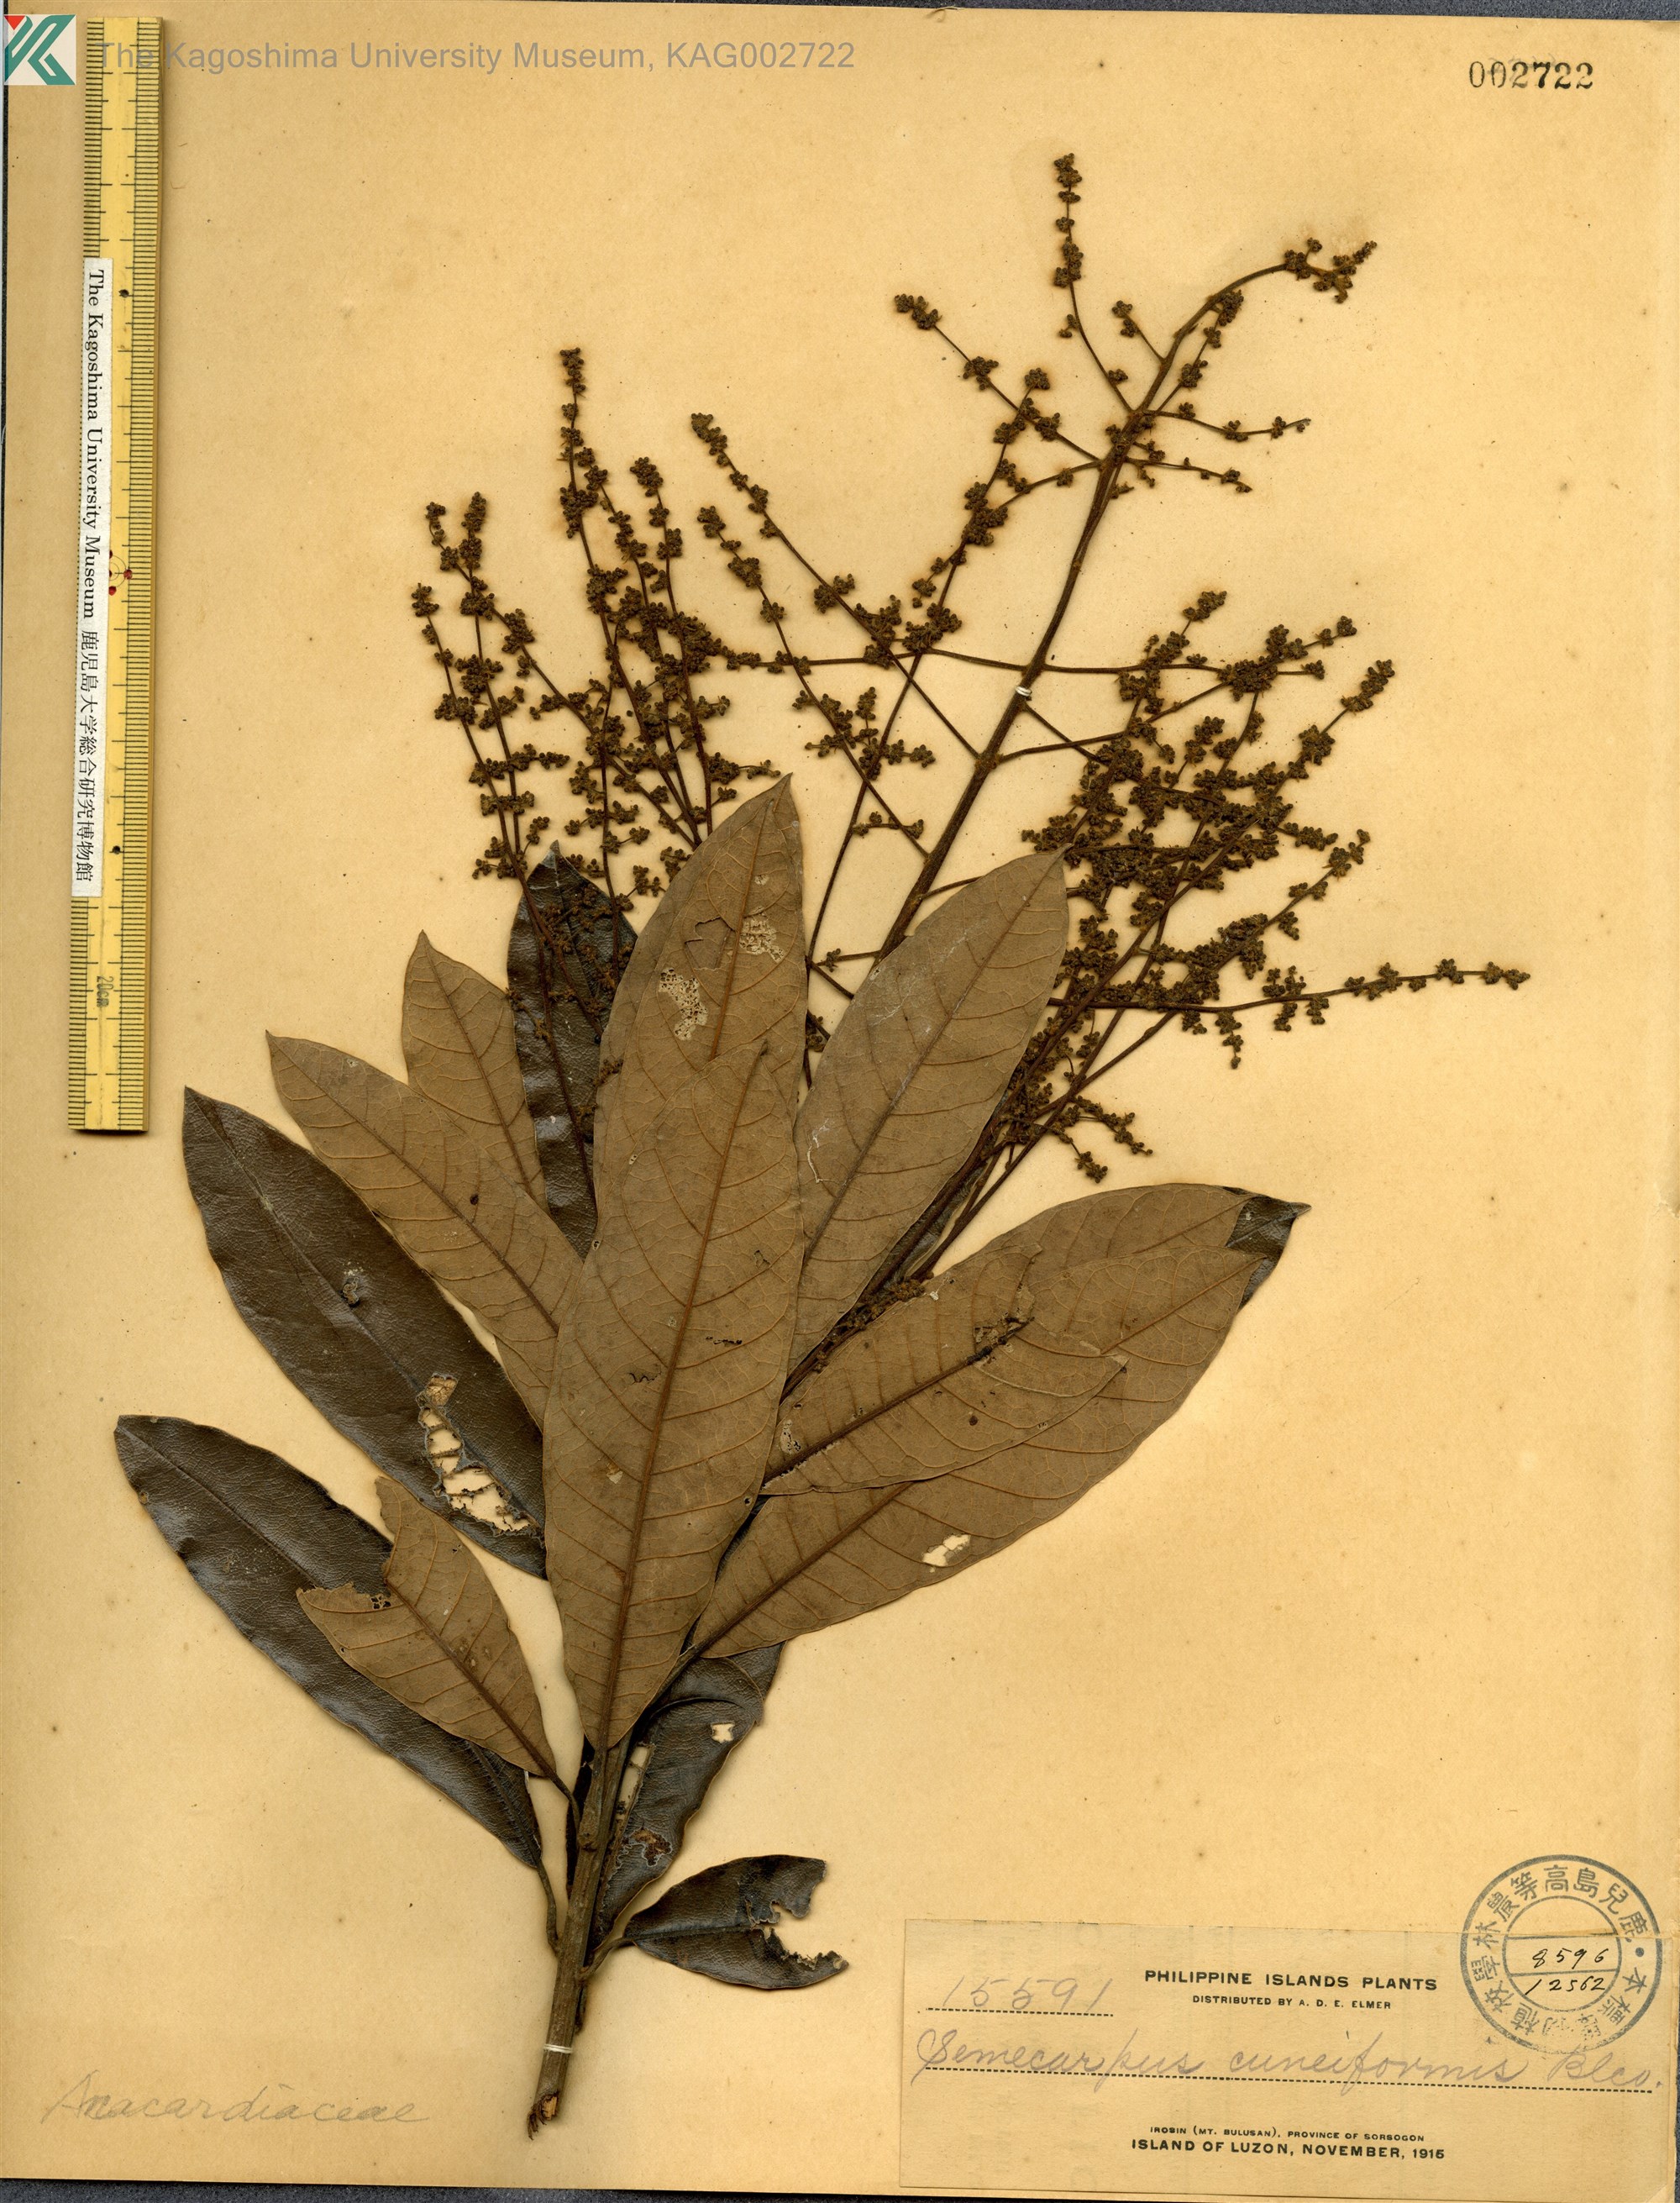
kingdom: Plantae
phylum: Tracheophyta
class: Magnoliopsida
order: Sapindales
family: Anacardiaceae
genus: Semecarpus
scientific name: Semecarpus cuneiformis
